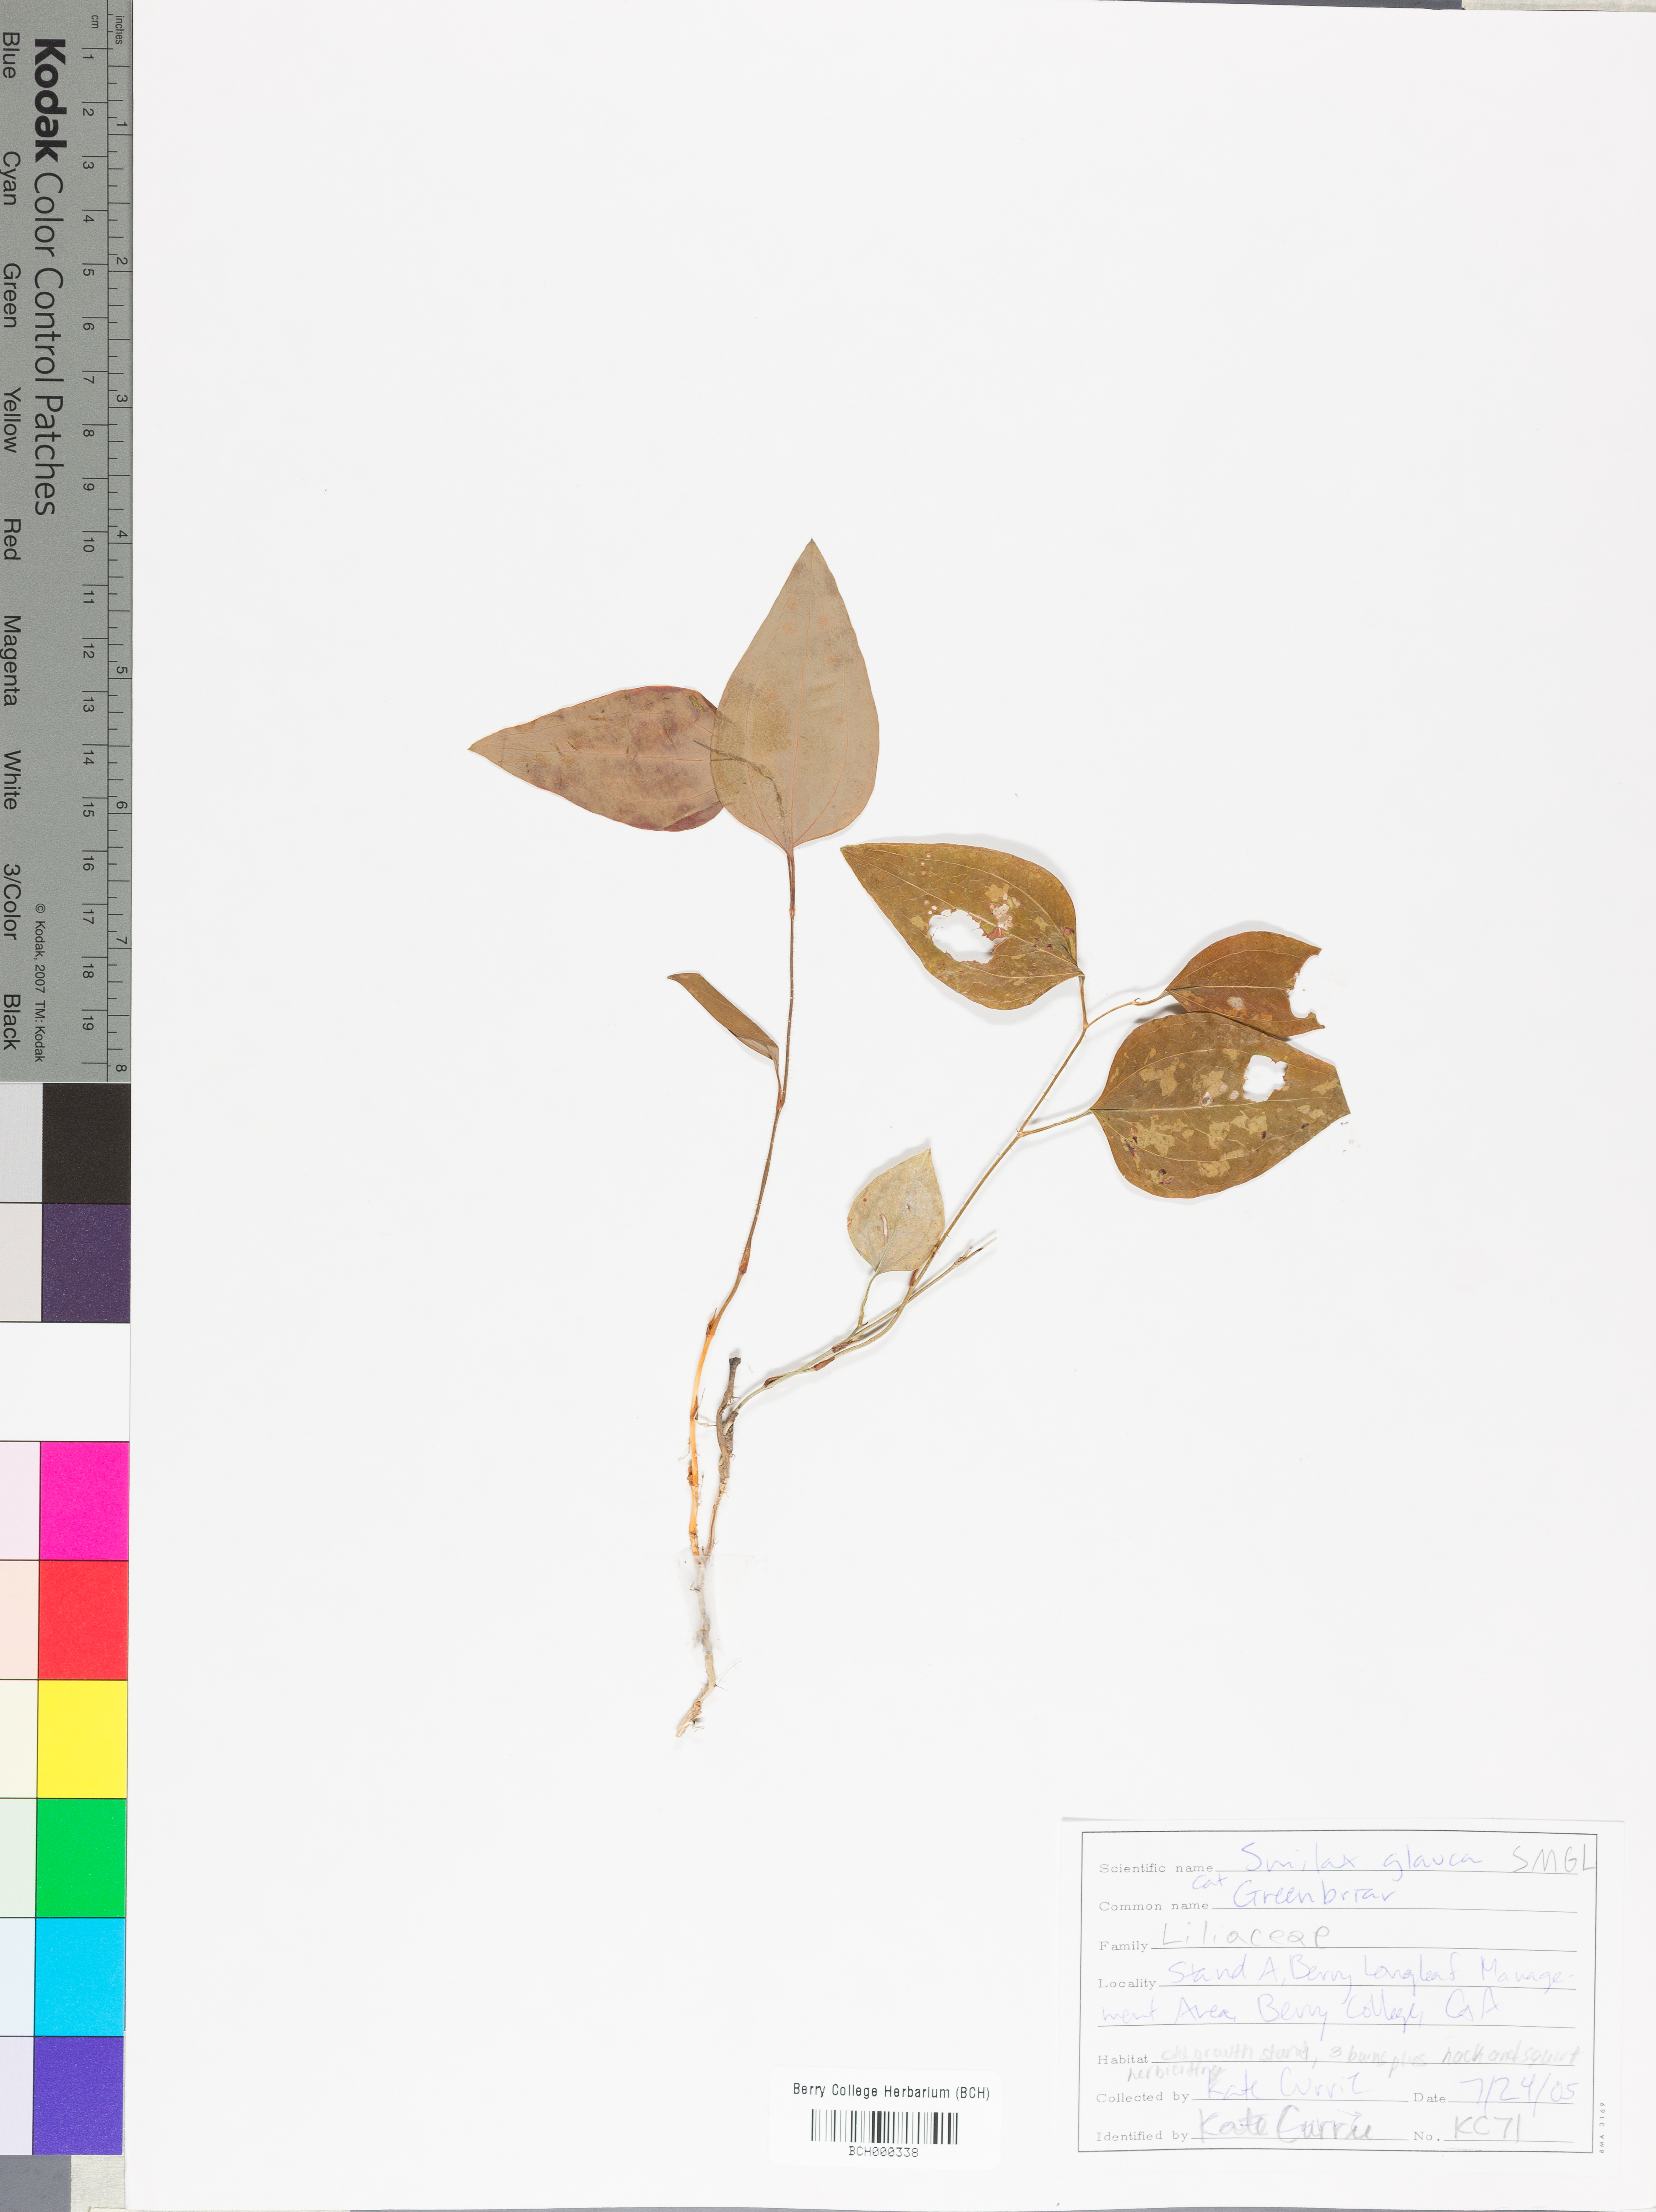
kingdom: Plantae
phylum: Tracheophyta
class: Liliopsida
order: Liliales
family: Smilacaceae
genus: Smilax
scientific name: Smilax glauca
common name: Cat greenbrier
